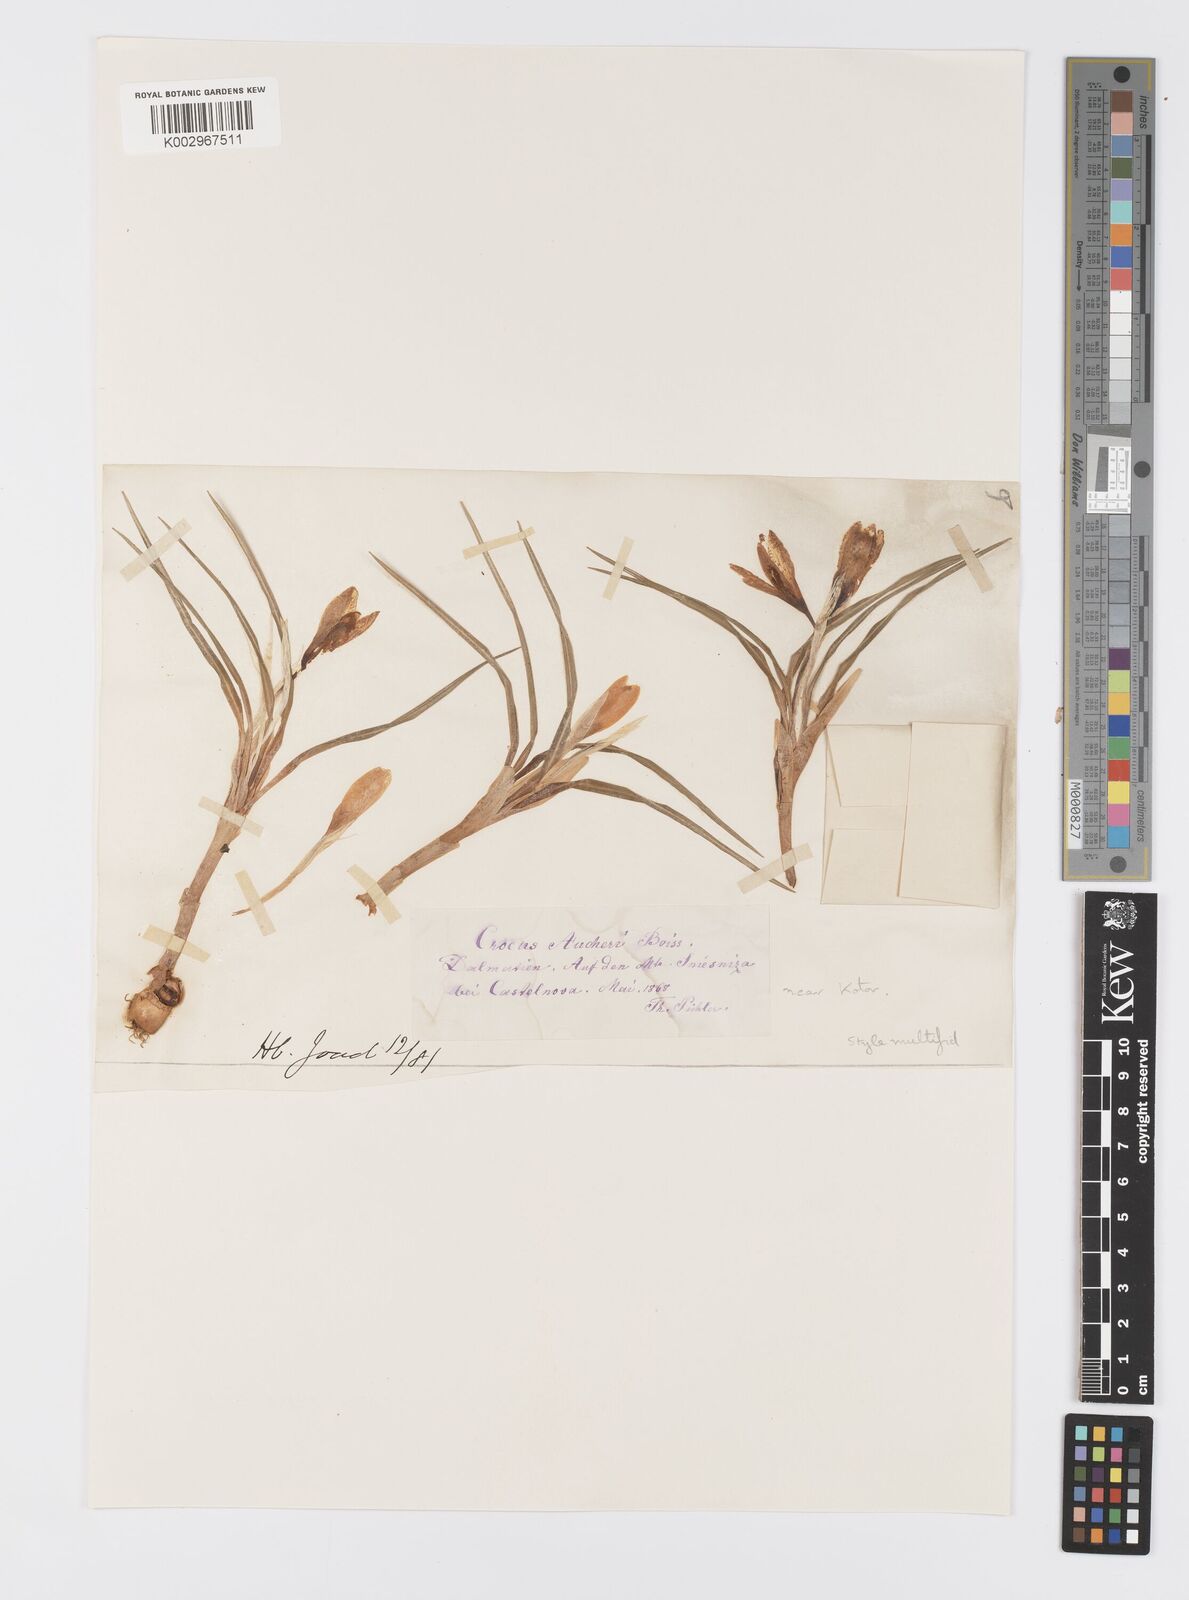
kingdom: Plantae
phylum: Tracheophyta
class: Liliopsida
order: Asparagales
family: Iridaceae
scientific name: Iridaceae
